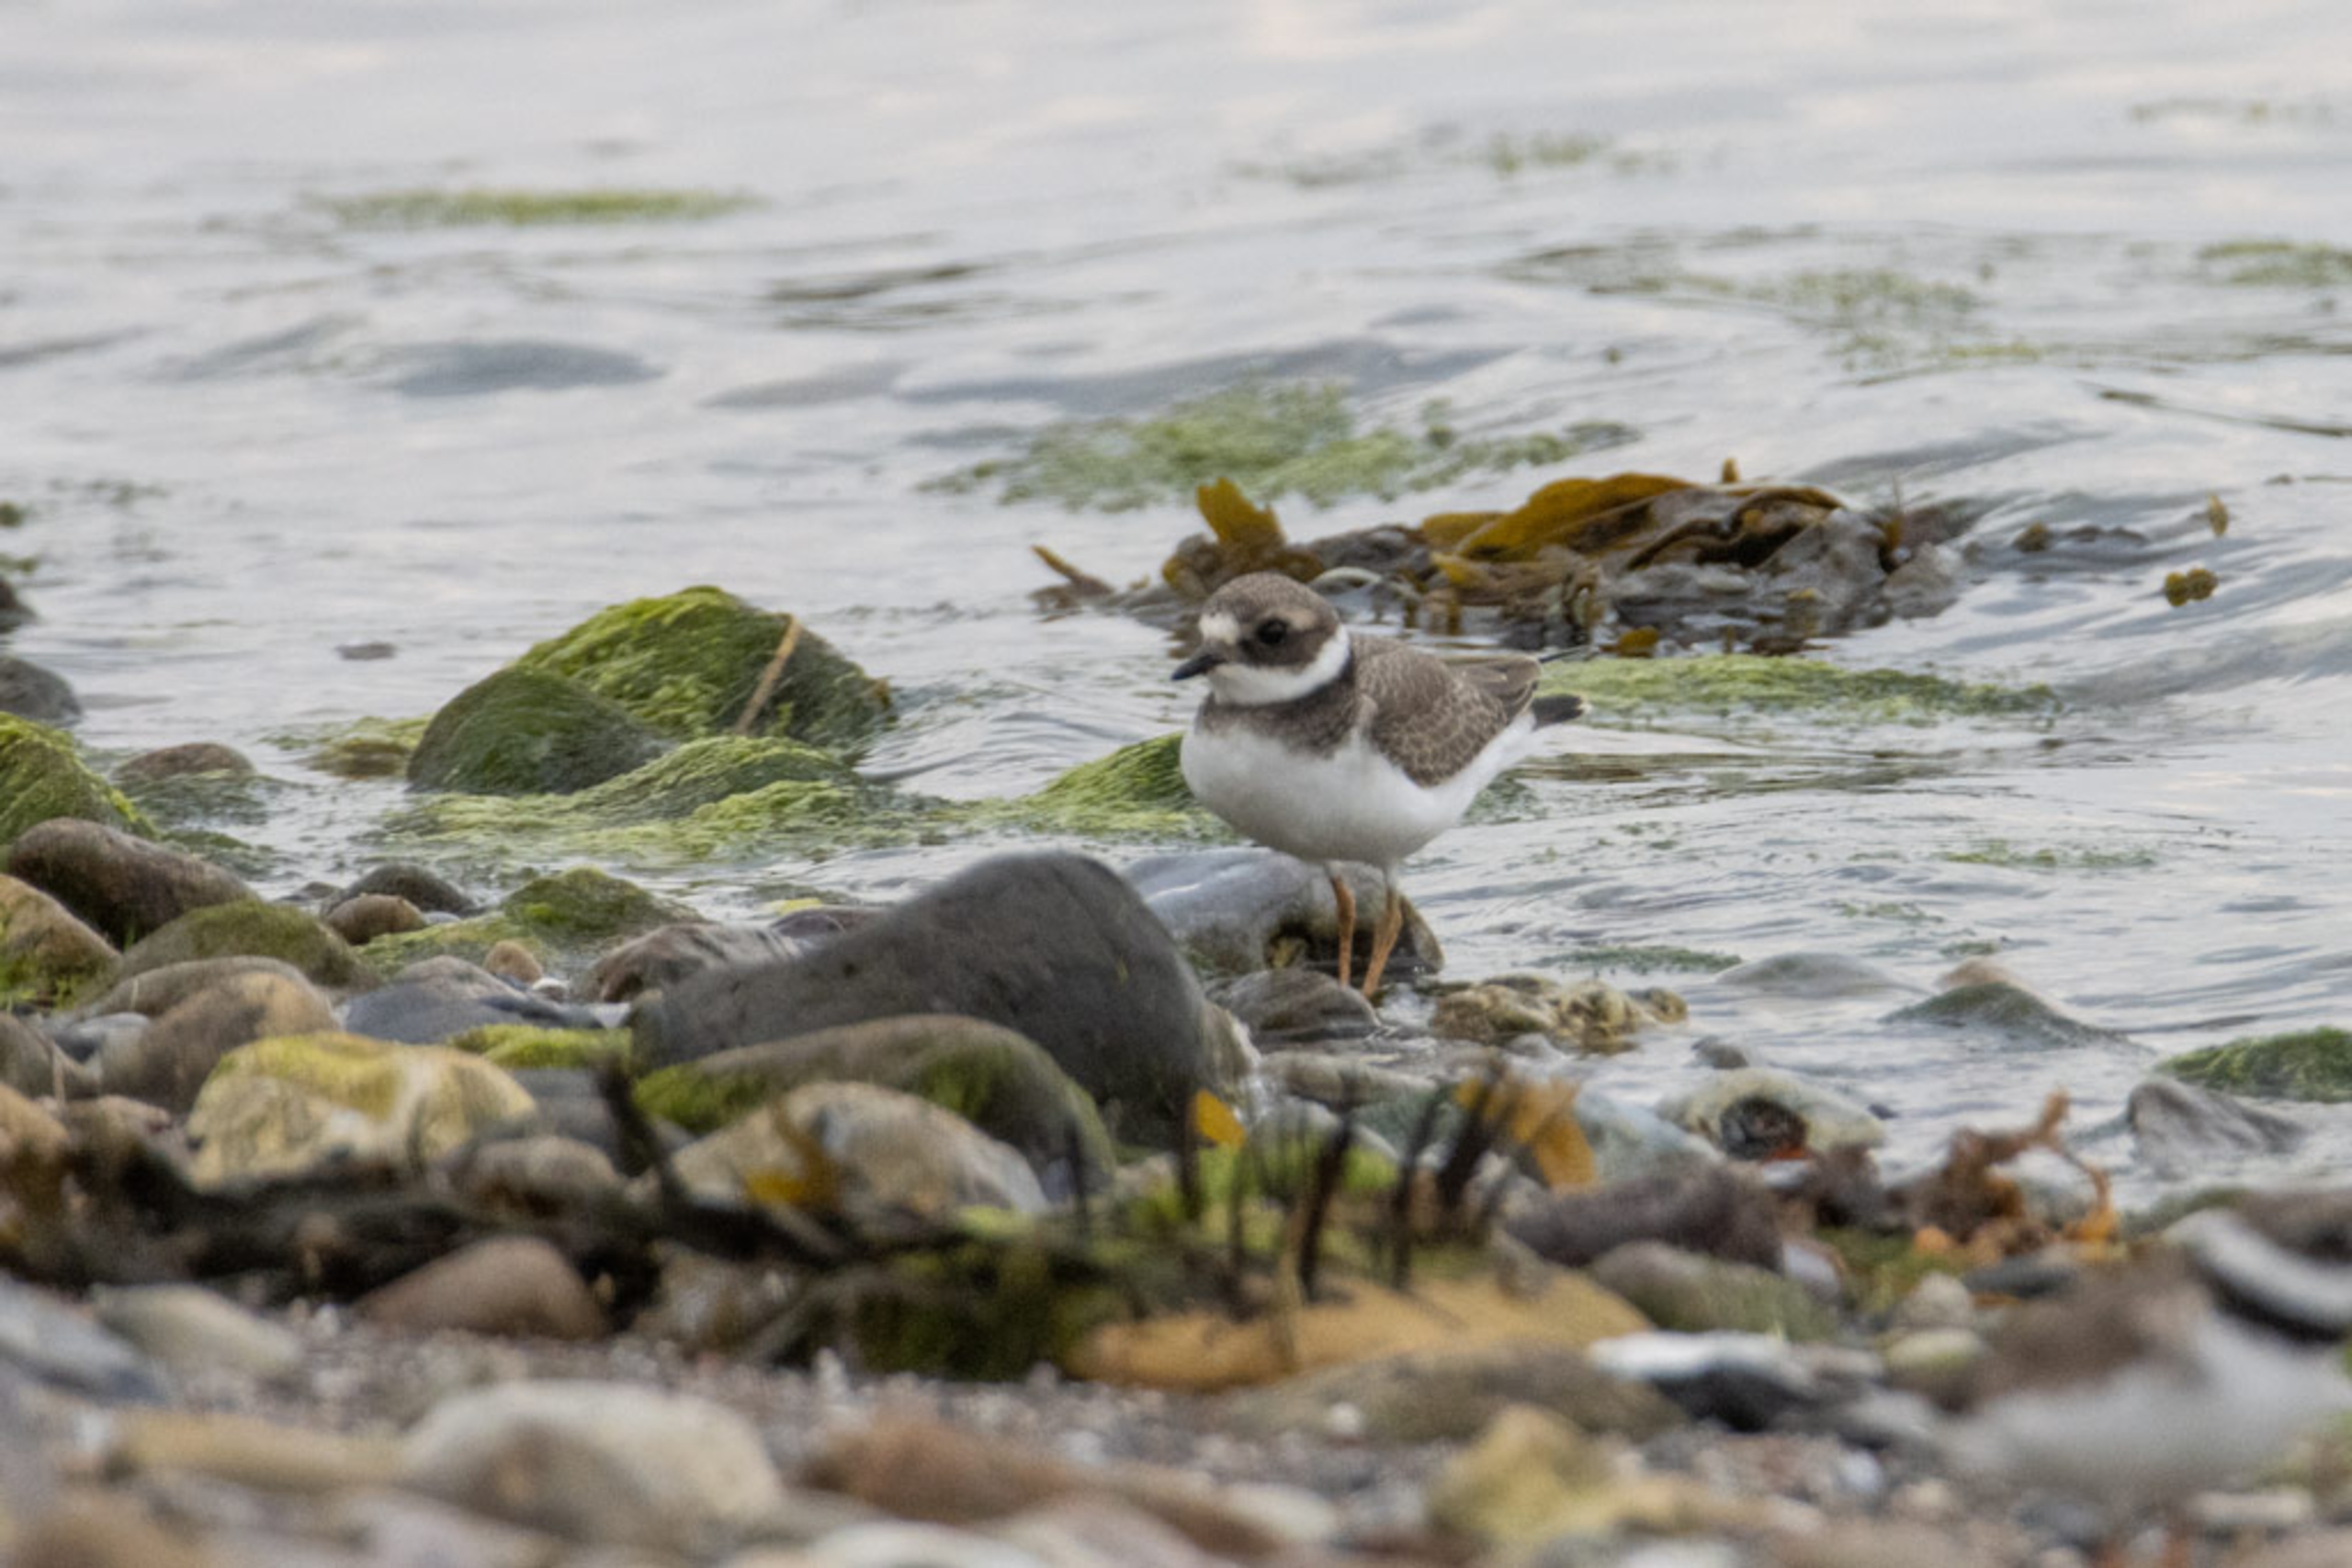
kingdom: Animalia
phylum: Chordata
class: Aves
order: Charadriiformes
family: Charadriidae
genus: Charadrius
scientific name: Charadrius hiaticula
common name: Stor præstekrave
